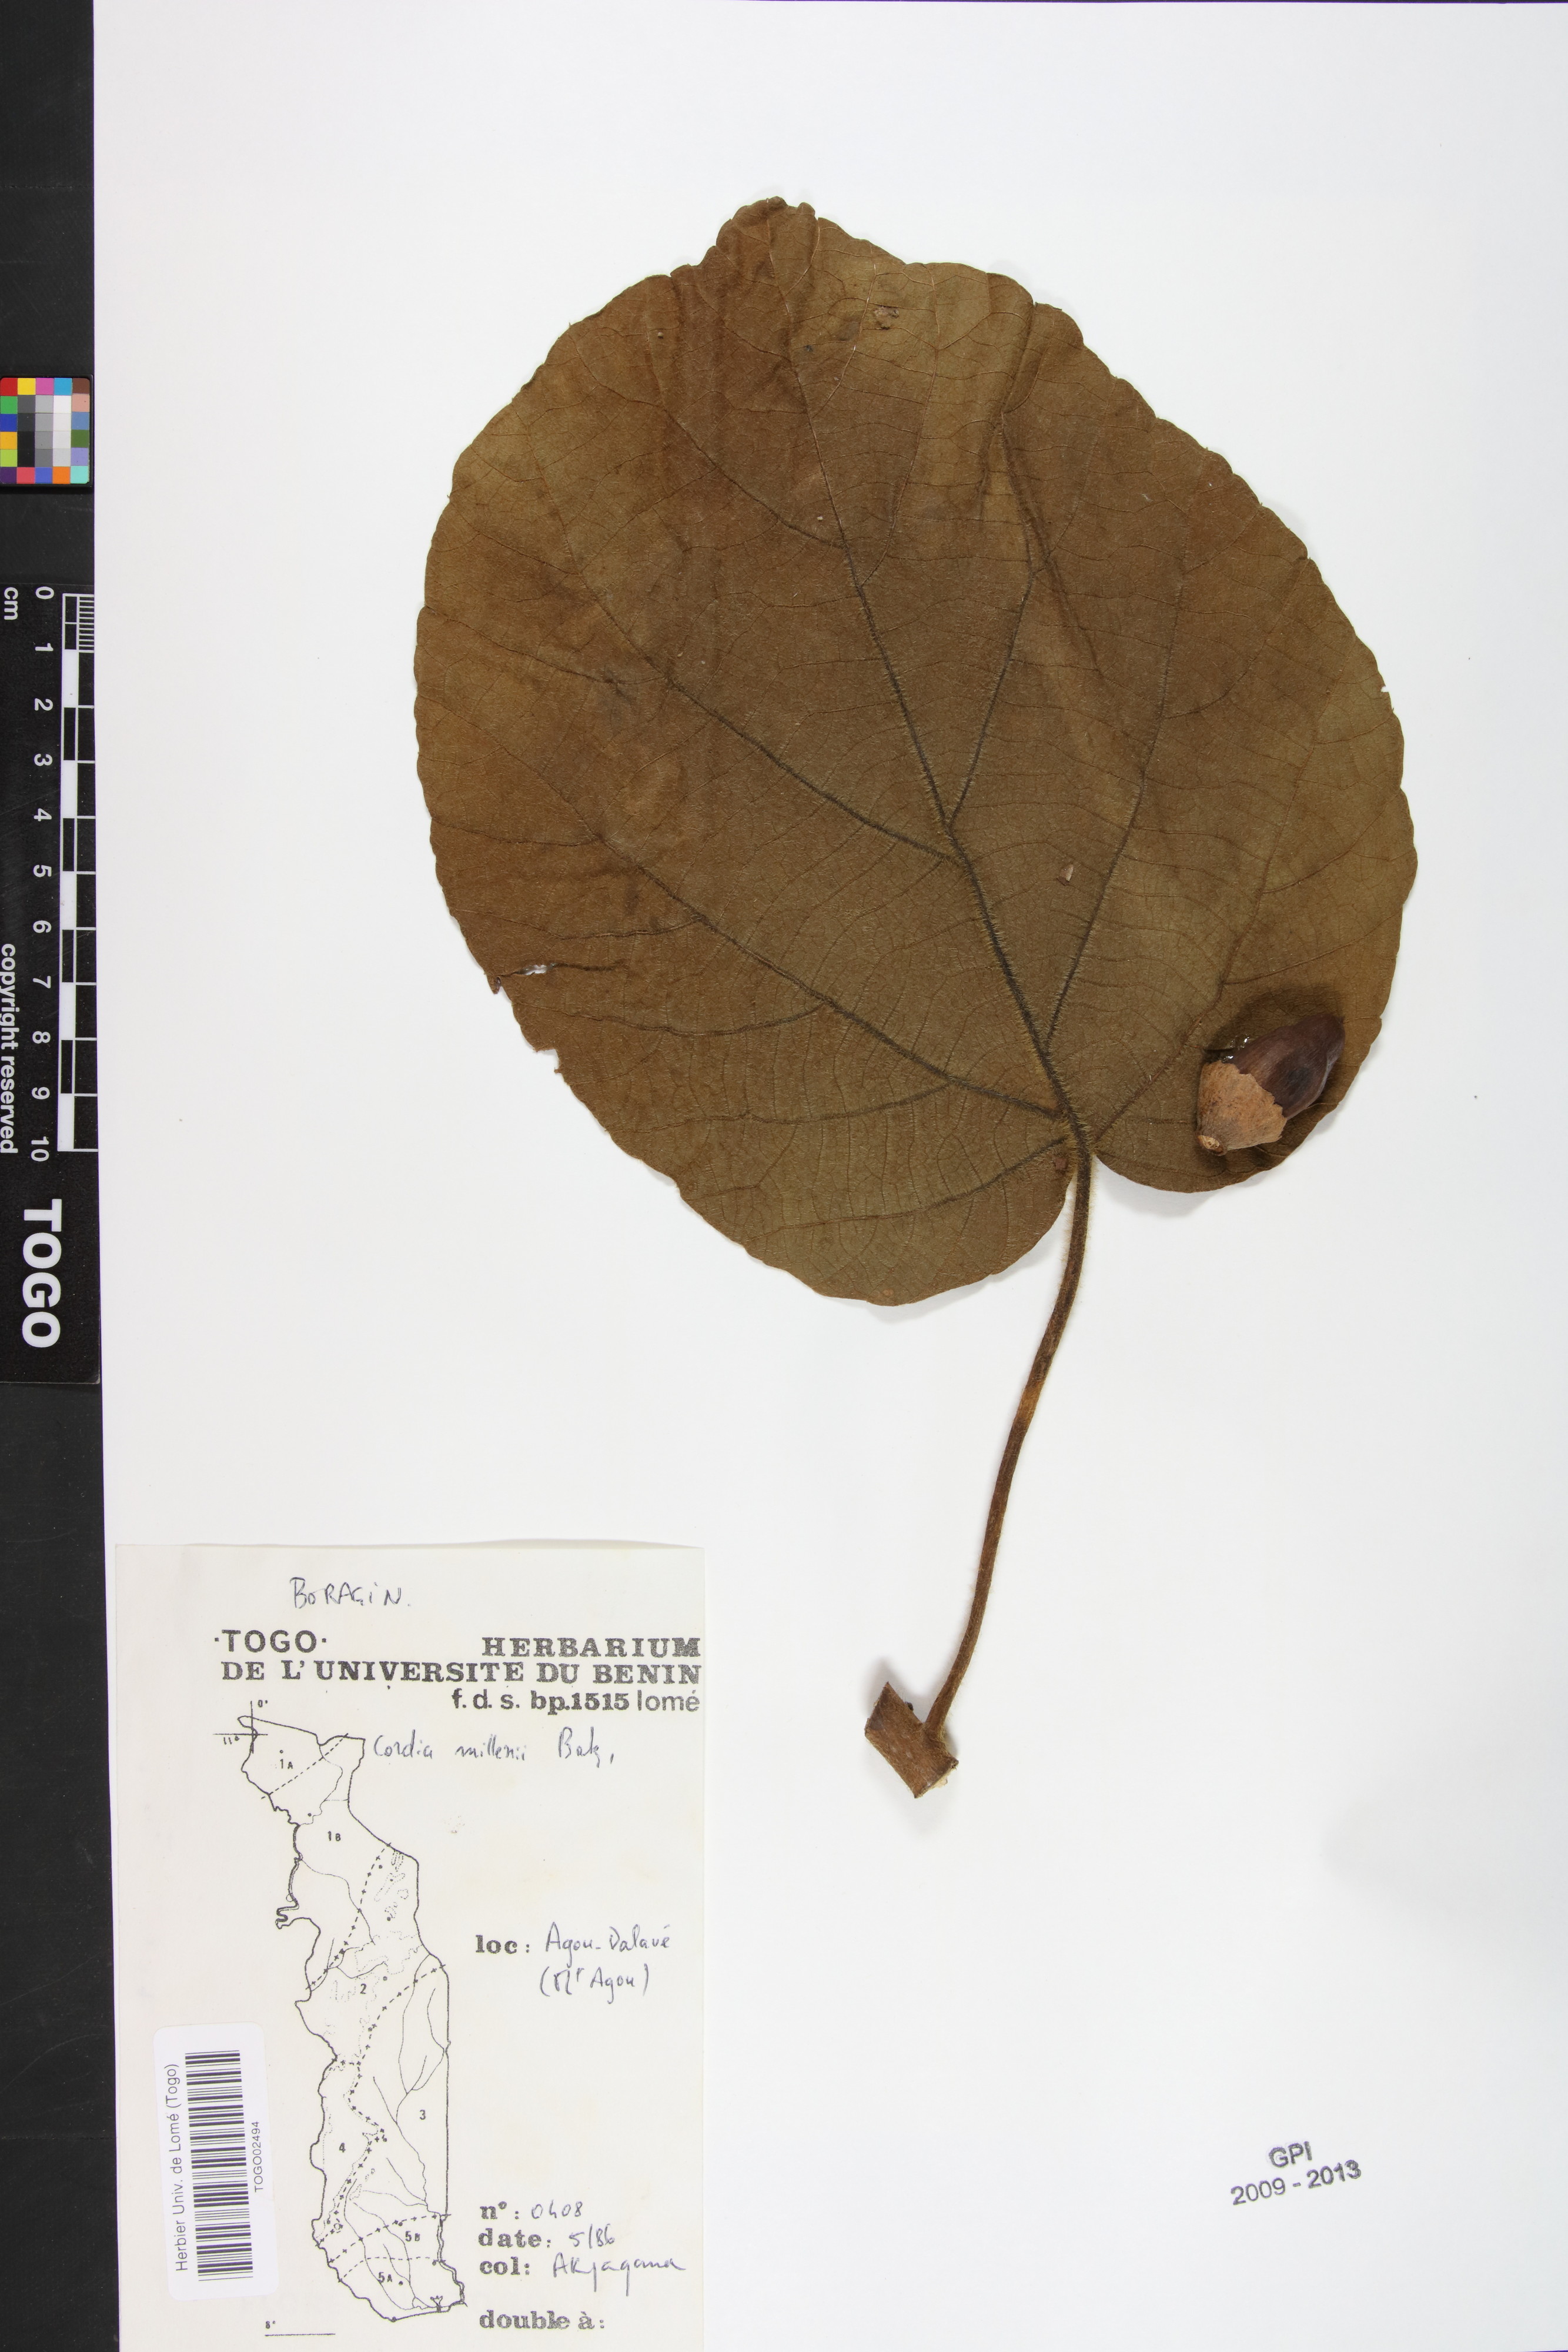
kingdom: Plantae
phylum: Tracheophyta
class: Magnoliopsida
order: Boraginales
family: Cordiaceae
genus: Cordia
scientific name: Cordia millenii
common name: Drum tree
